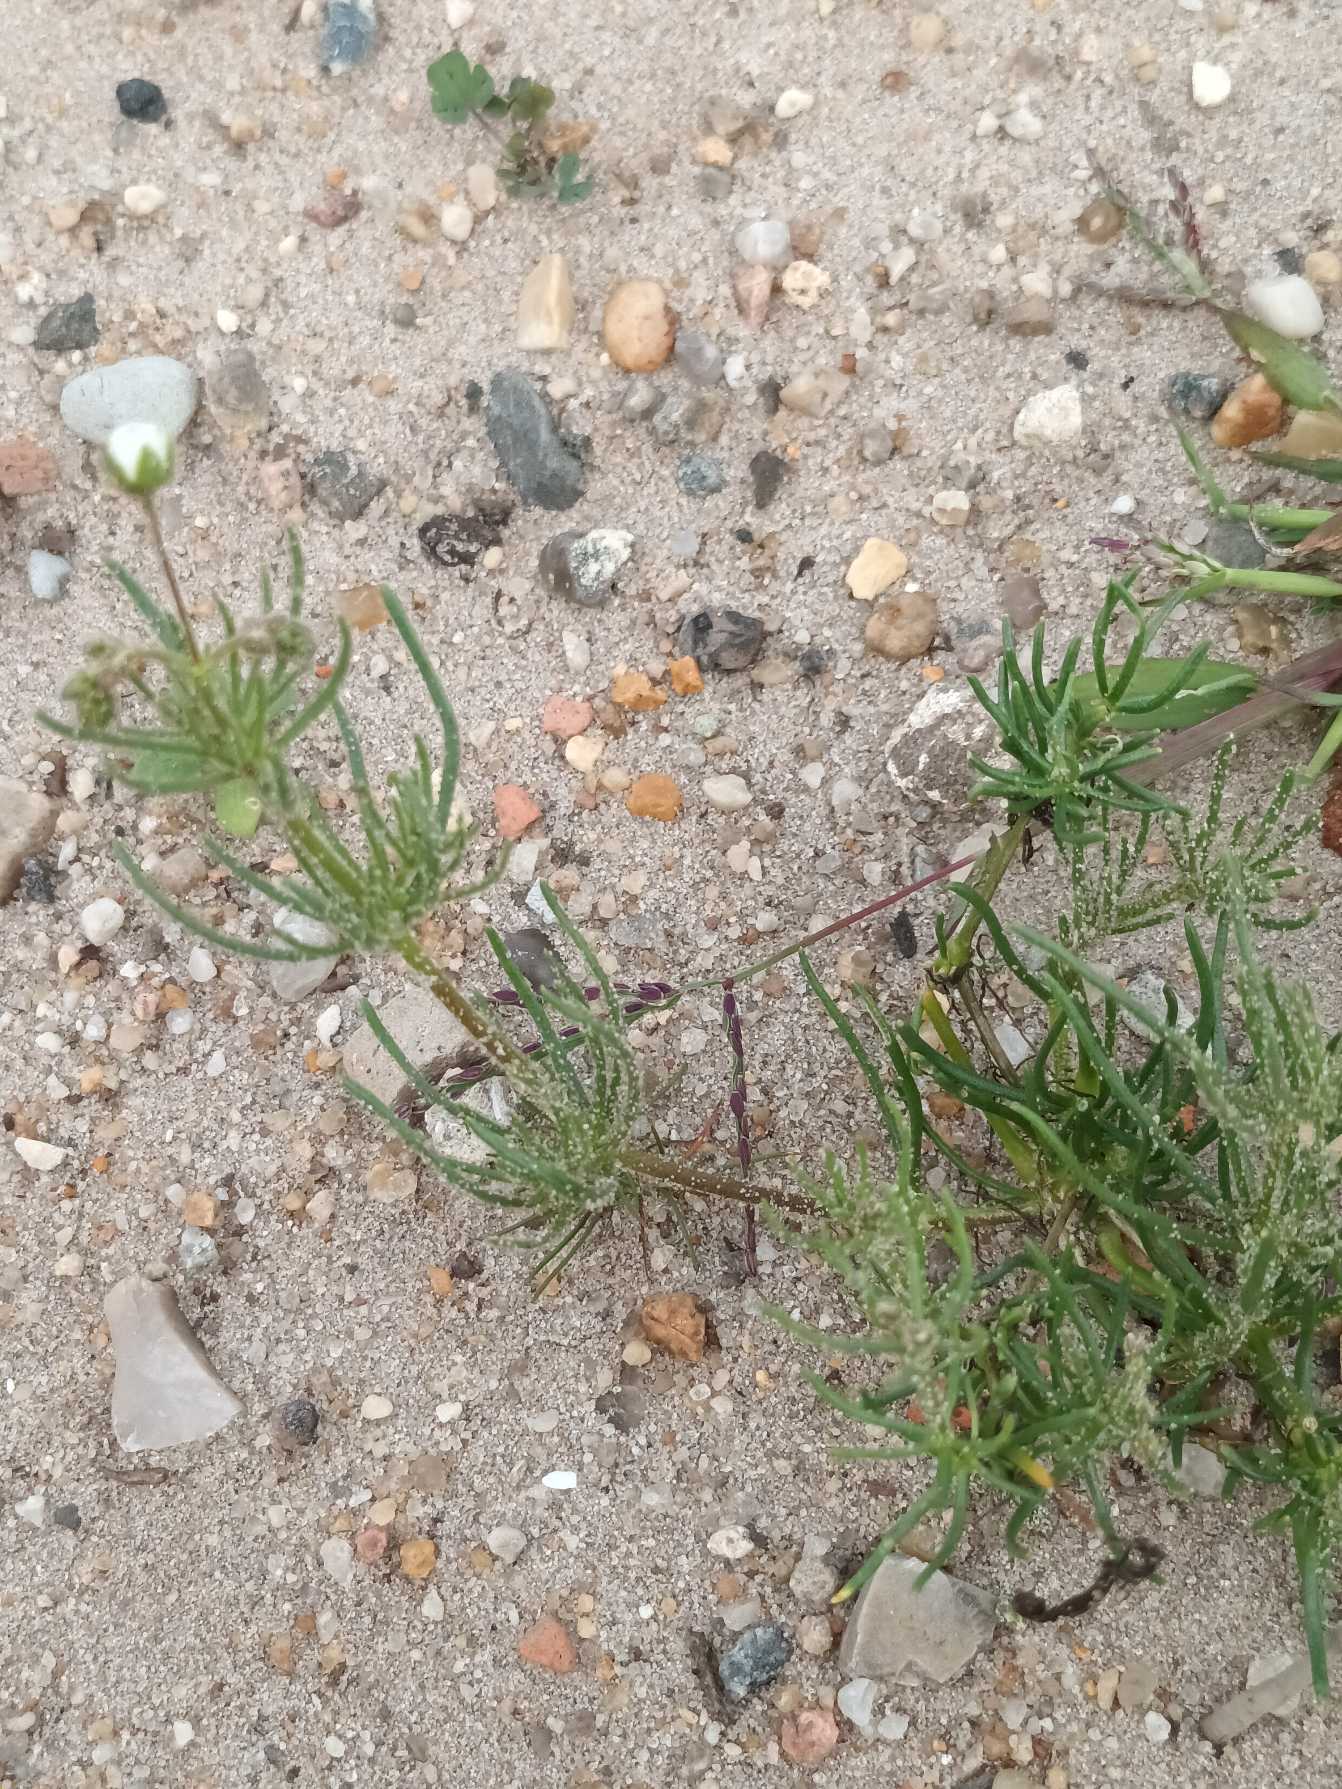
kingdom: Plantae
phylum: Tracheophyta
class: Magnoliopsida
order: Caryophyllales
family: Caryophyllaceae
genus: Spergula
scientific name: Spergula arvensis
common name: Almindelig spergel (underart)
